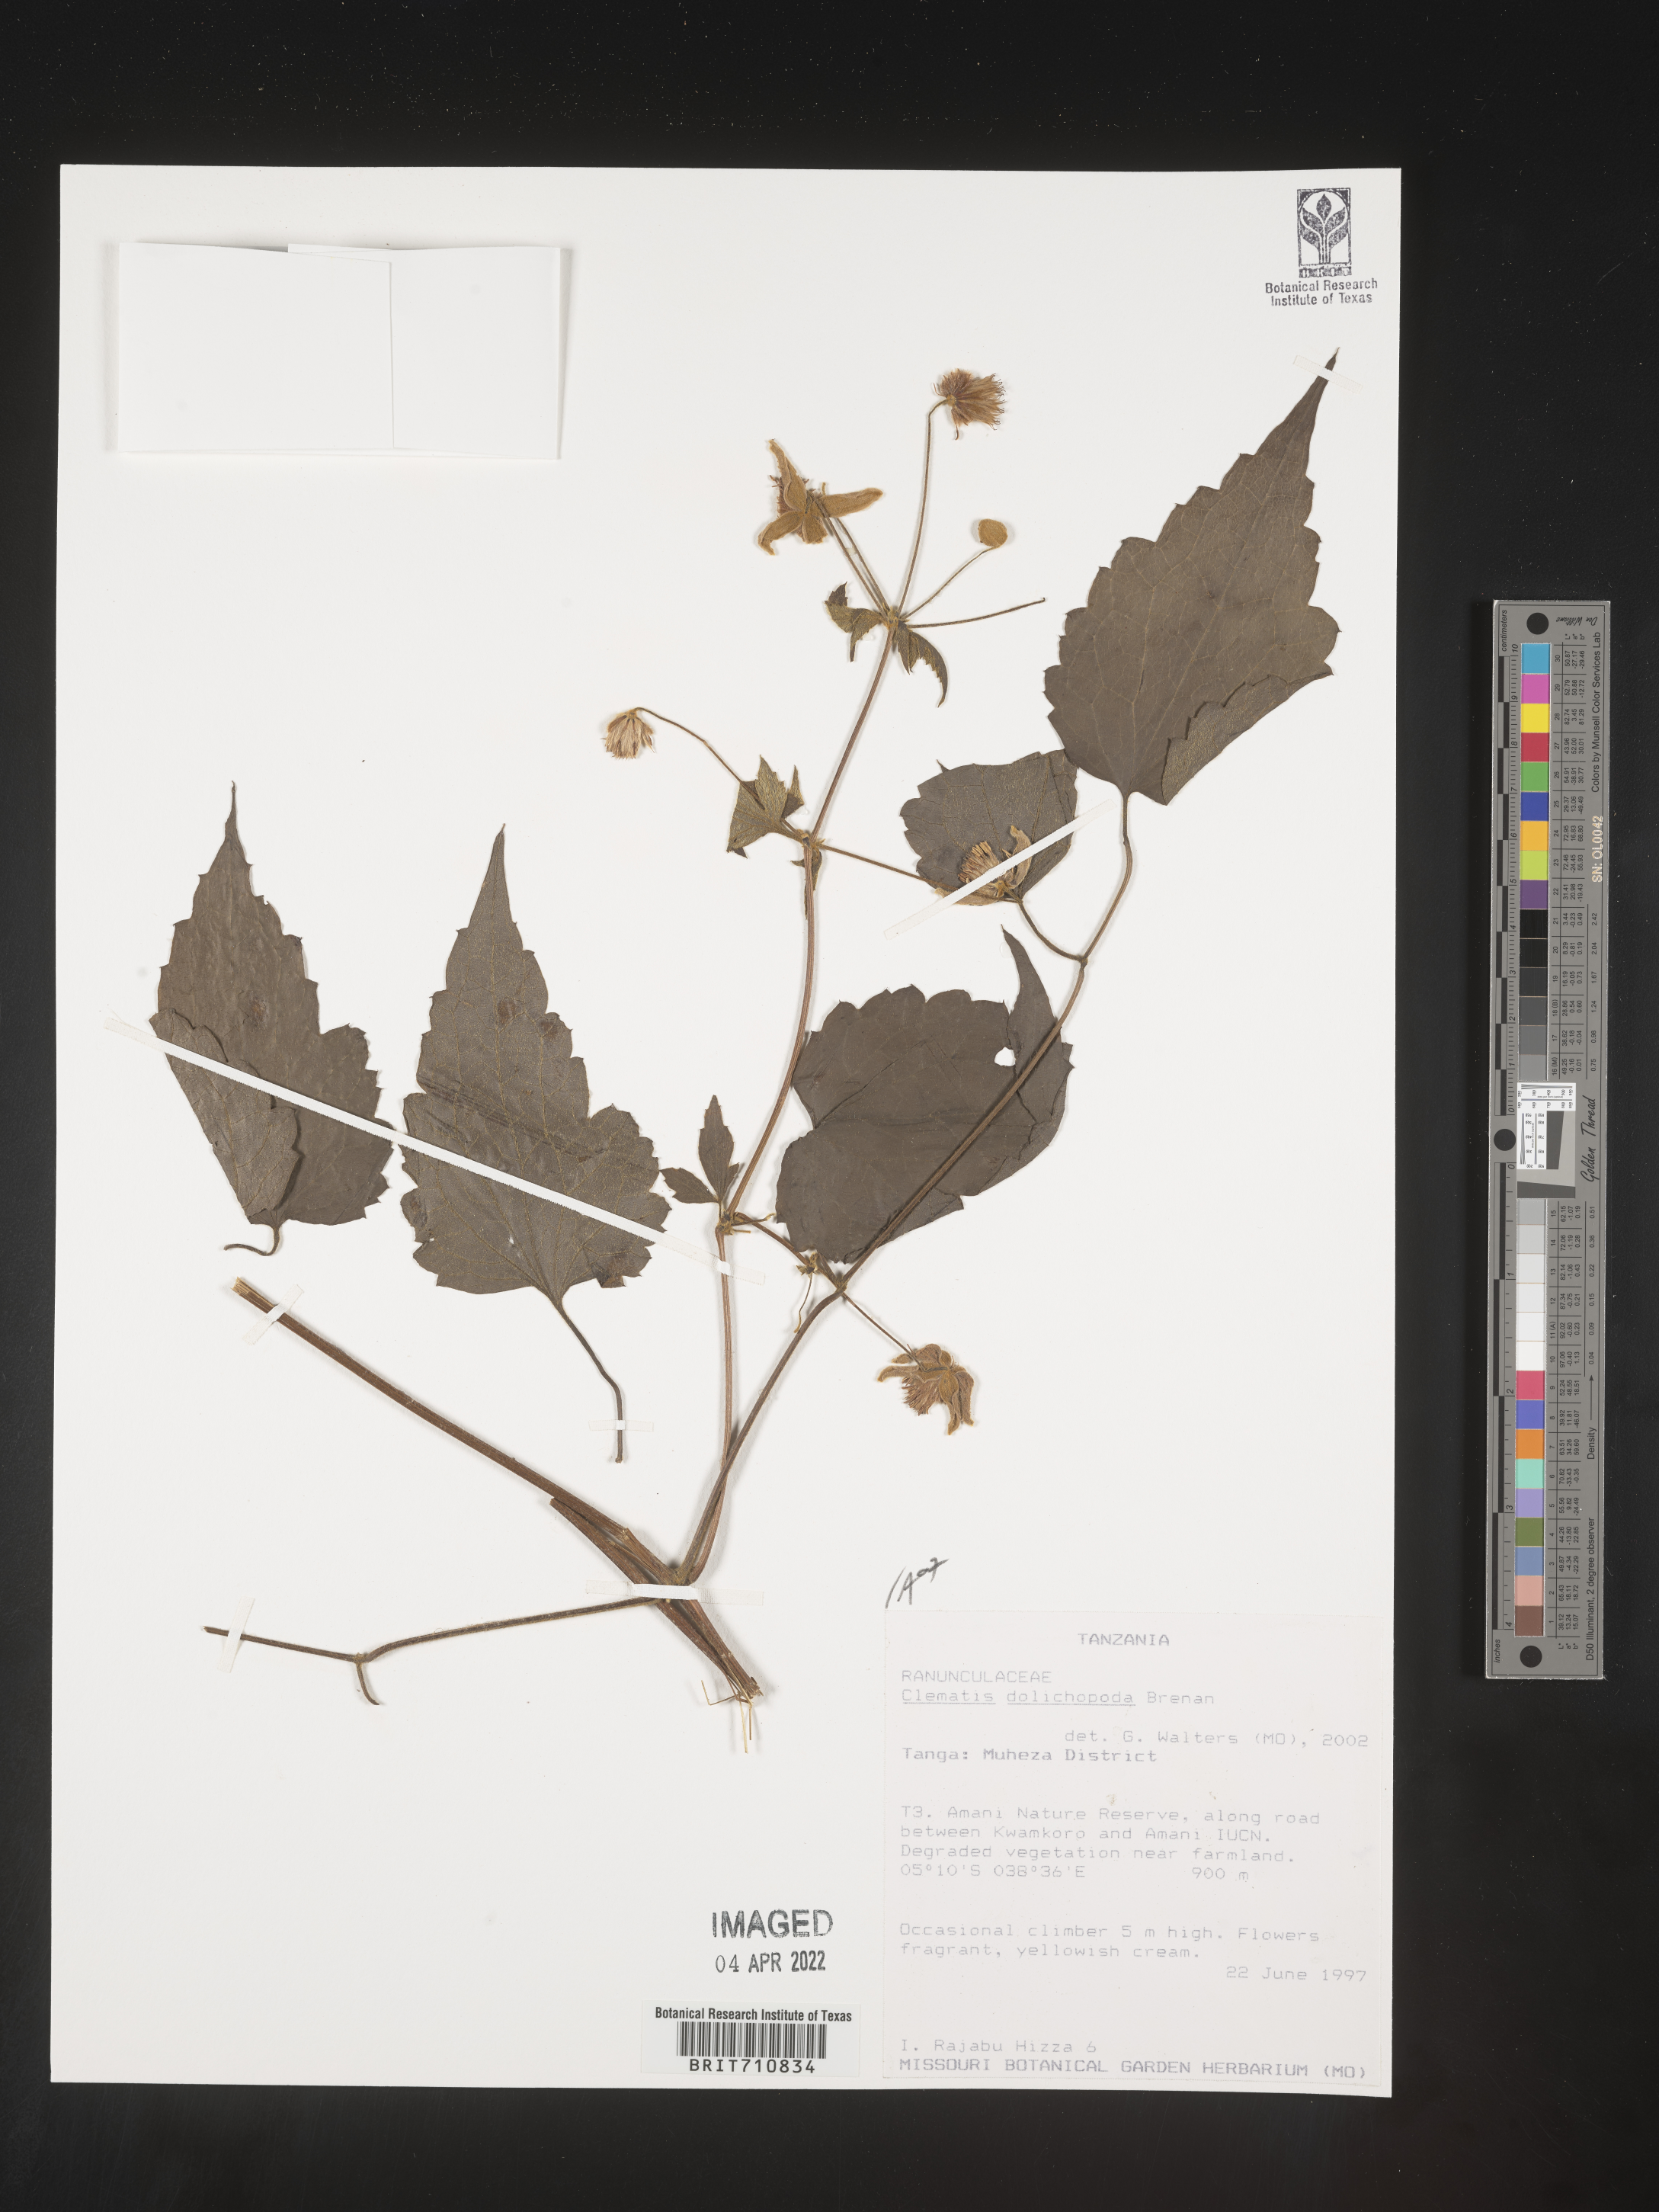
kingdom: Plantae
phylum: Tracheophyta
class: Magnoliopsida
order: Ranunculales
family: Ranunculaceae
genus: Clematis
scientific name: Clematis
